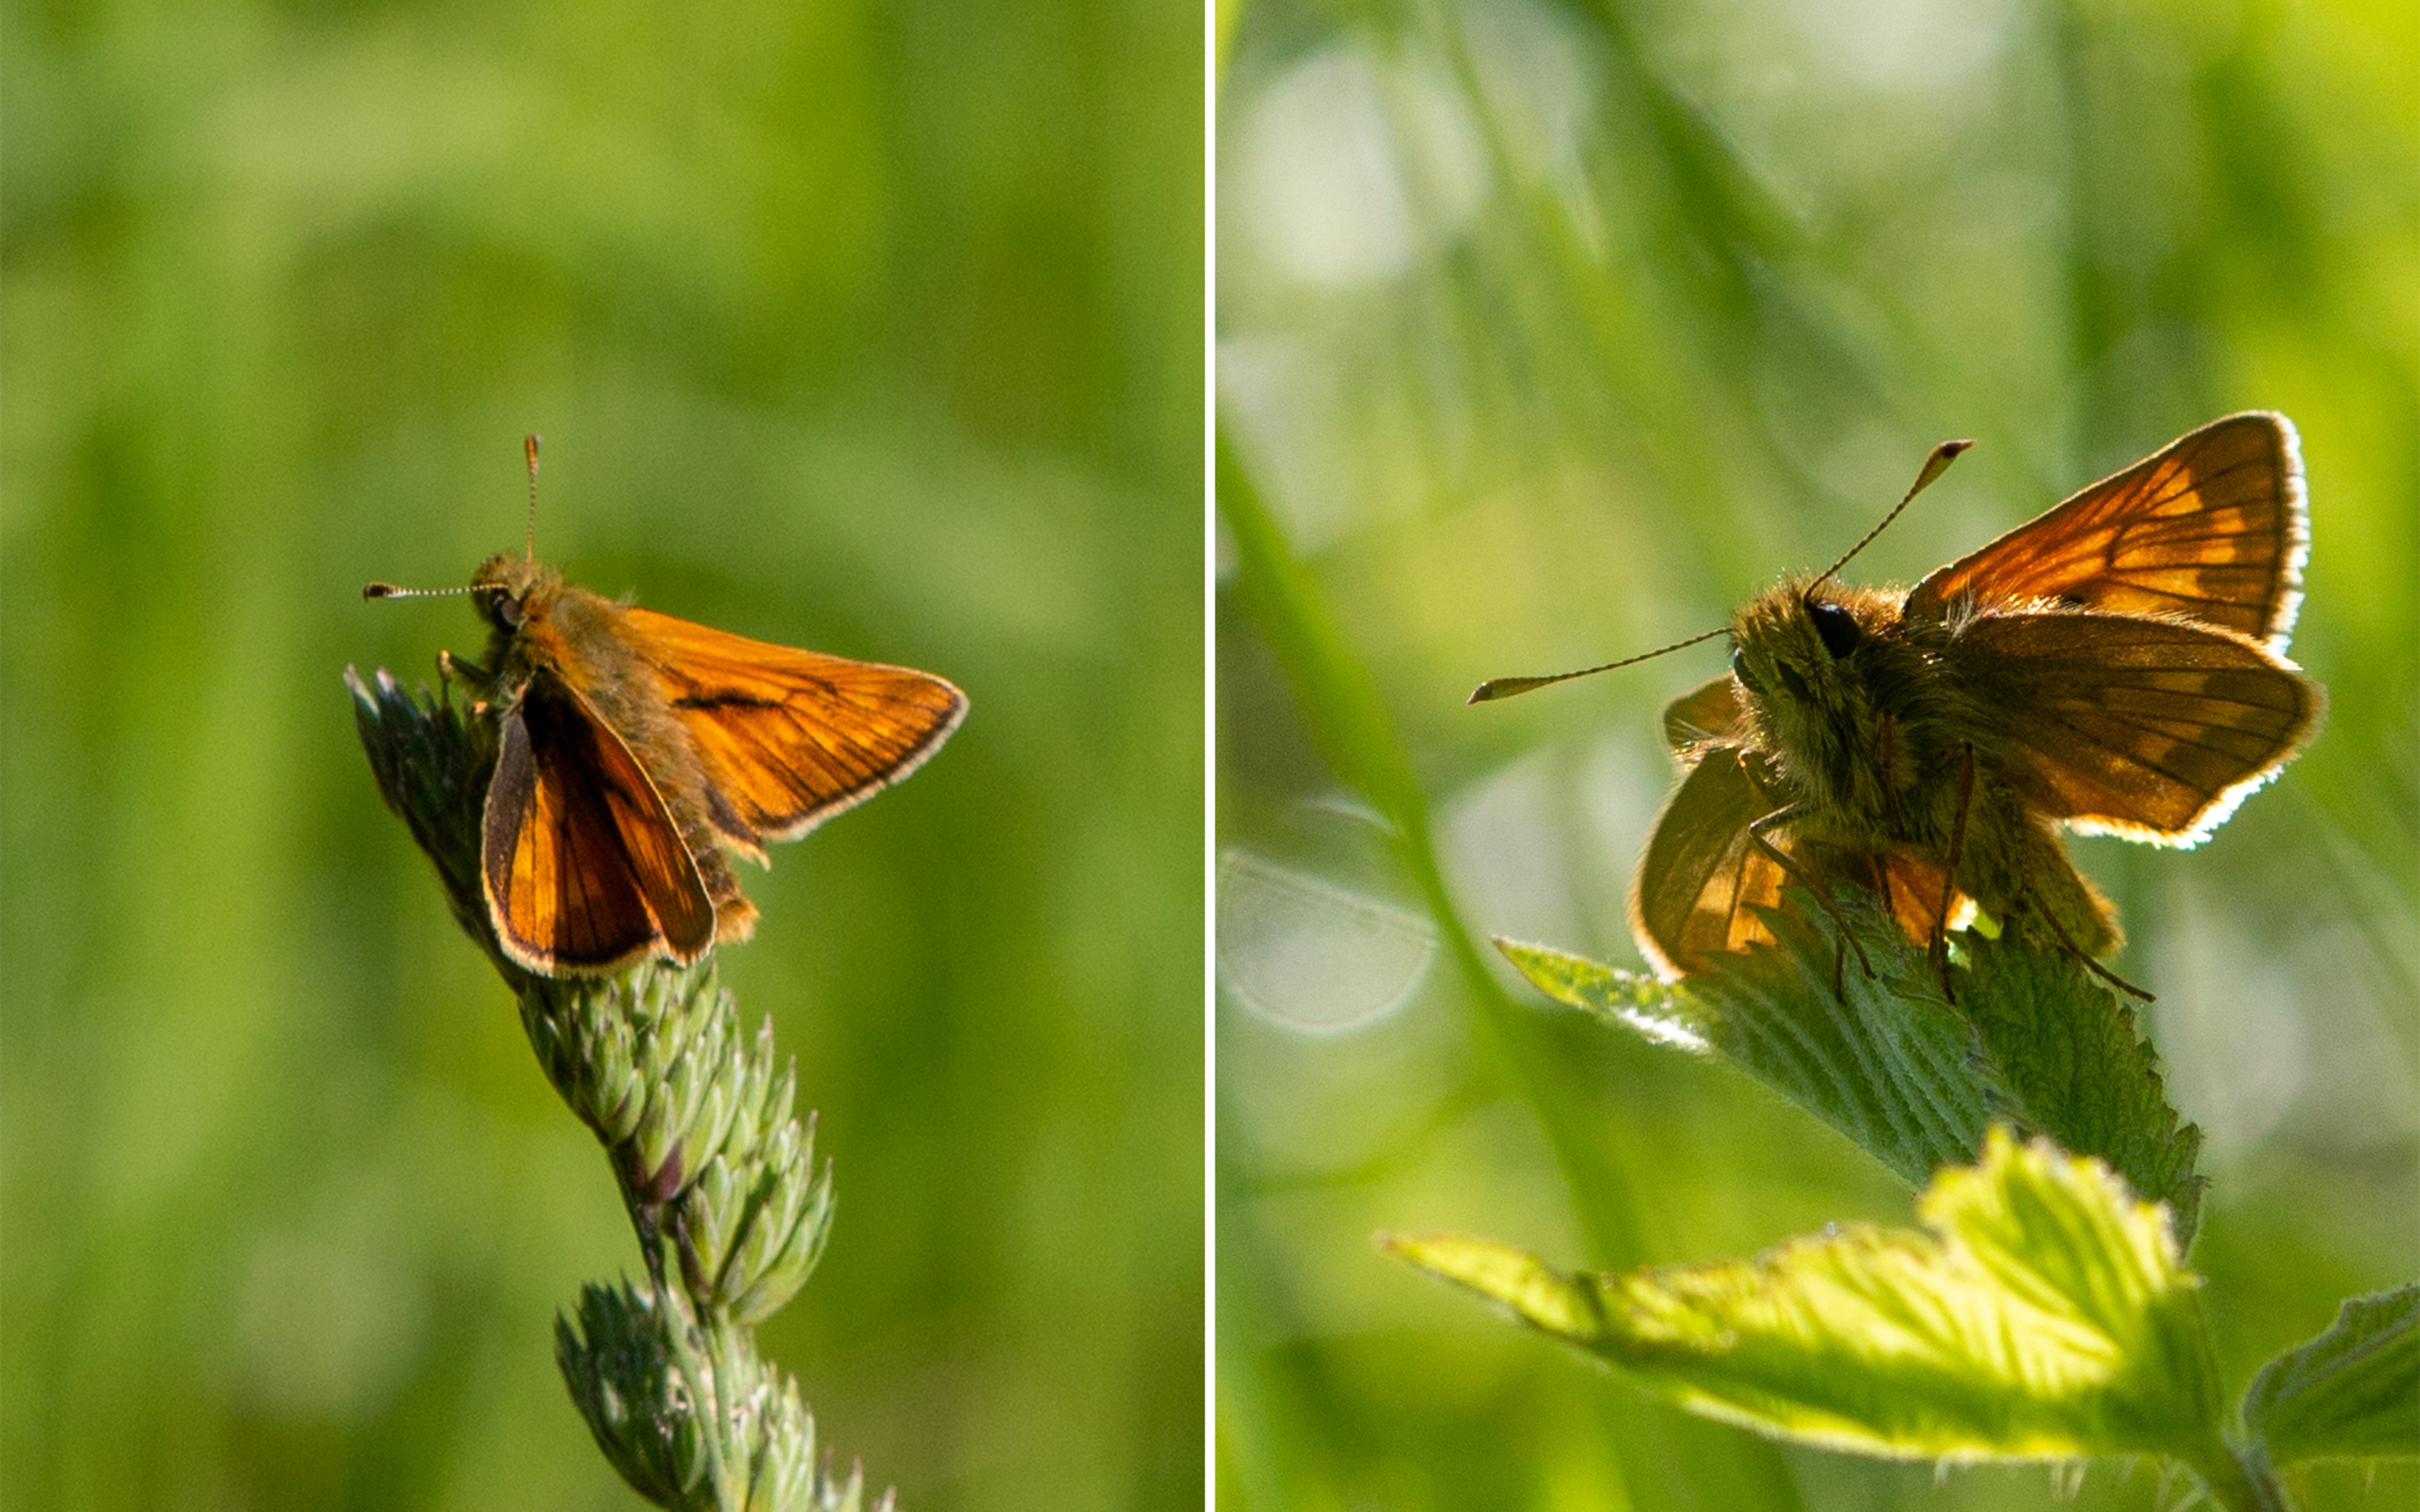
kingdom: Animalia
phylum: Arthropoda
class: Insecta
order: Lepidoptera
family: Hesperiidae
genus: Ochlodes
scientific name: Ochlodes venata
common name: Stor bredpande
